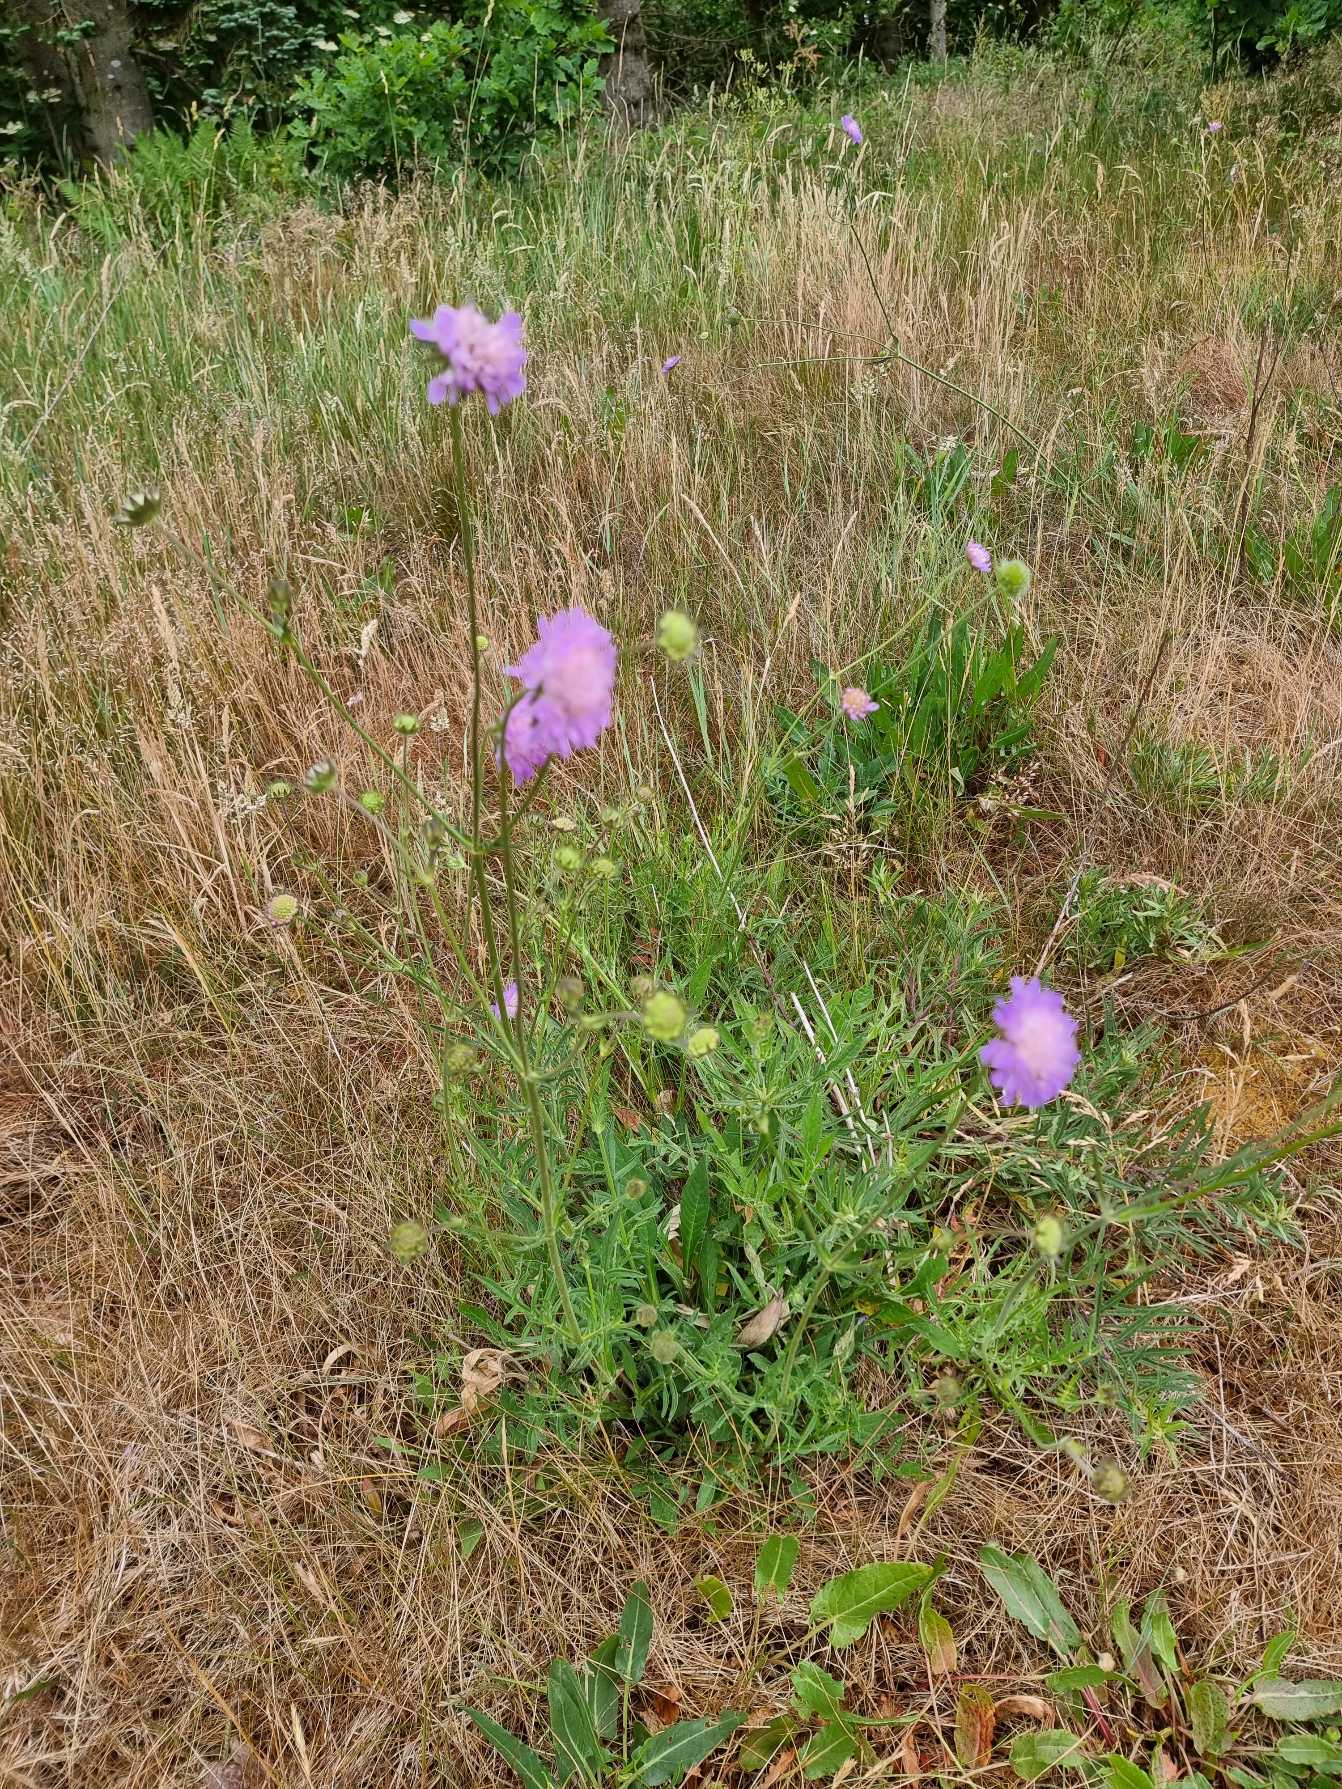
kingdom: Plantae
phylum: Tracheophyta
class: Magnoliopsida
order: Dipsacales
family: Caprifoliaceae
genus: Knautia
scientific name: Knautia arvensis
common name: Blåhat
